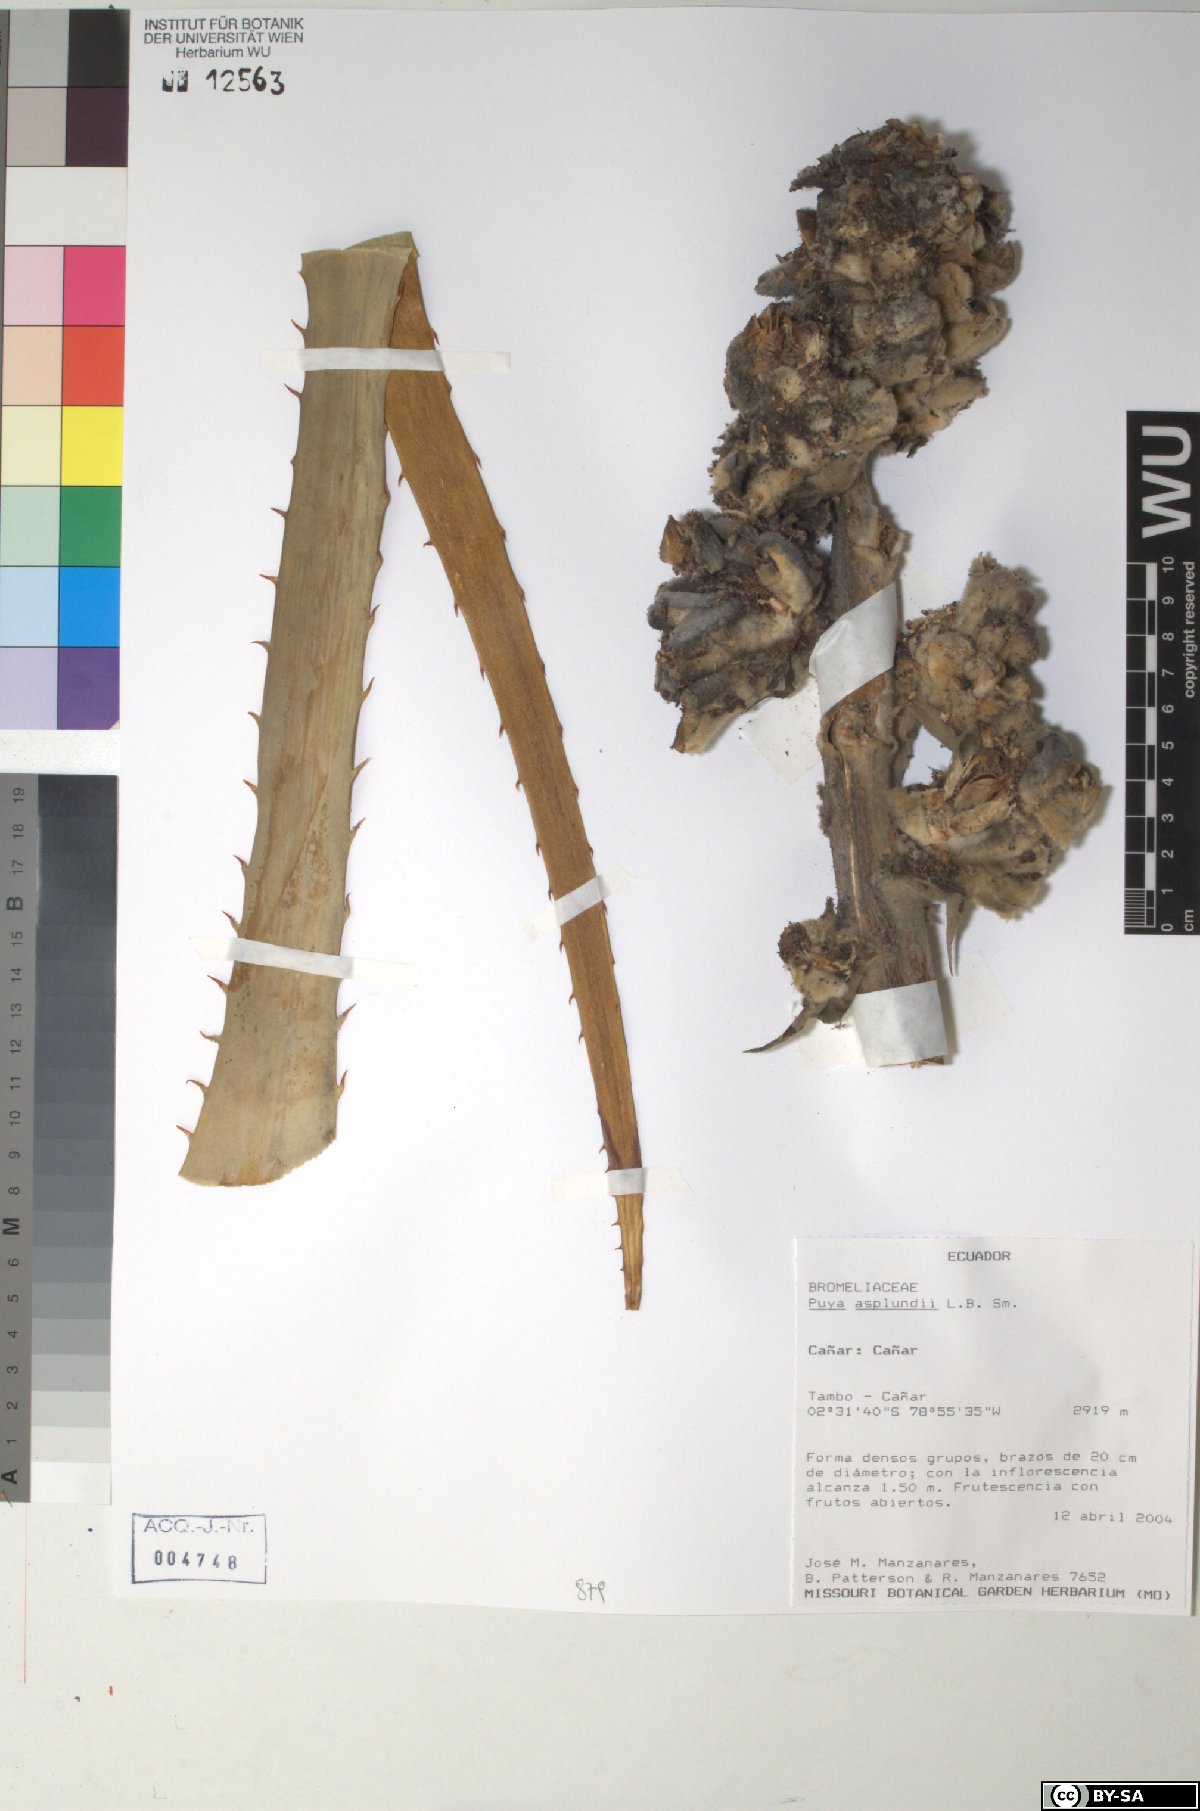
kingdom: Plantae
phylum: Tracheophyta
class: Liliopsida
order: Poales
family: Bromeliaceae
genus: Puya
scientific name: Puya glomerifera
